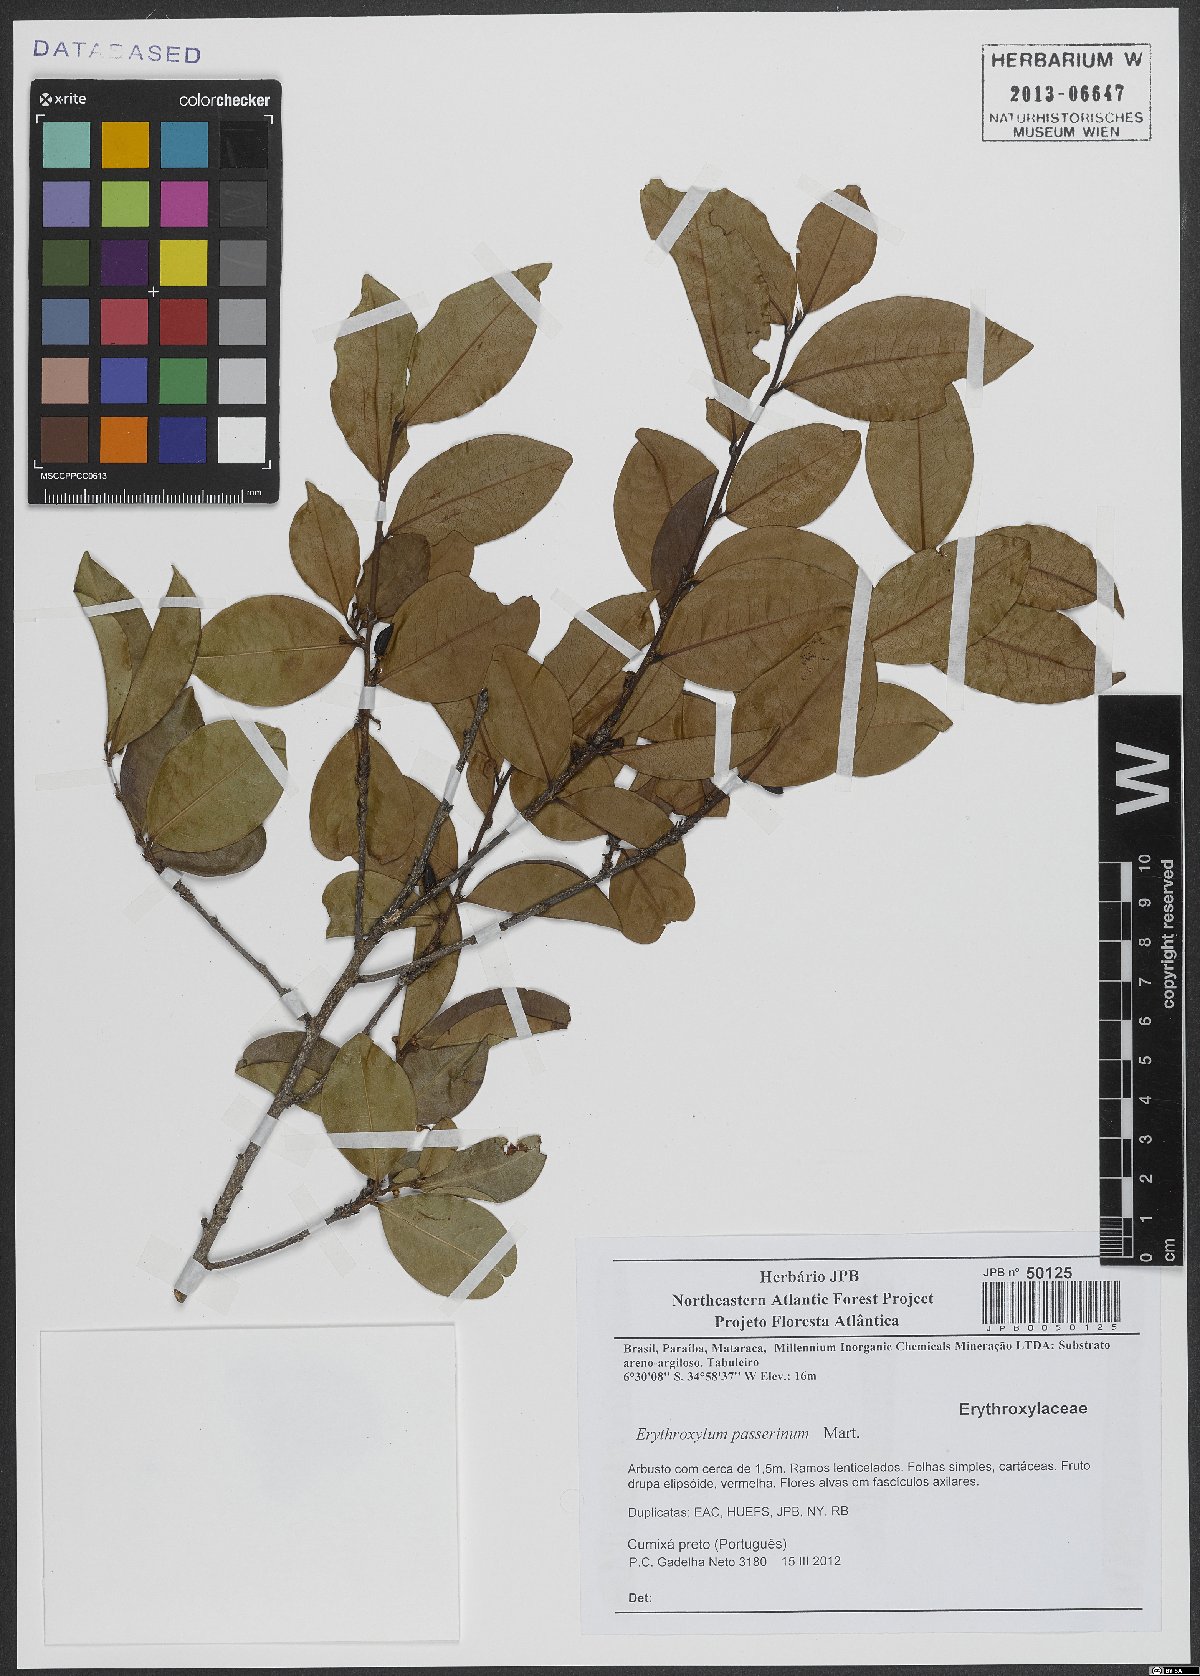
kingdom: Plantae
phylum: Tracheophyta
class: Magnoliopsida
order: Malpighiales
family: Erythroxylaceae
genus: Erythroxylum
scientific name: Erythroxylum passerinum
